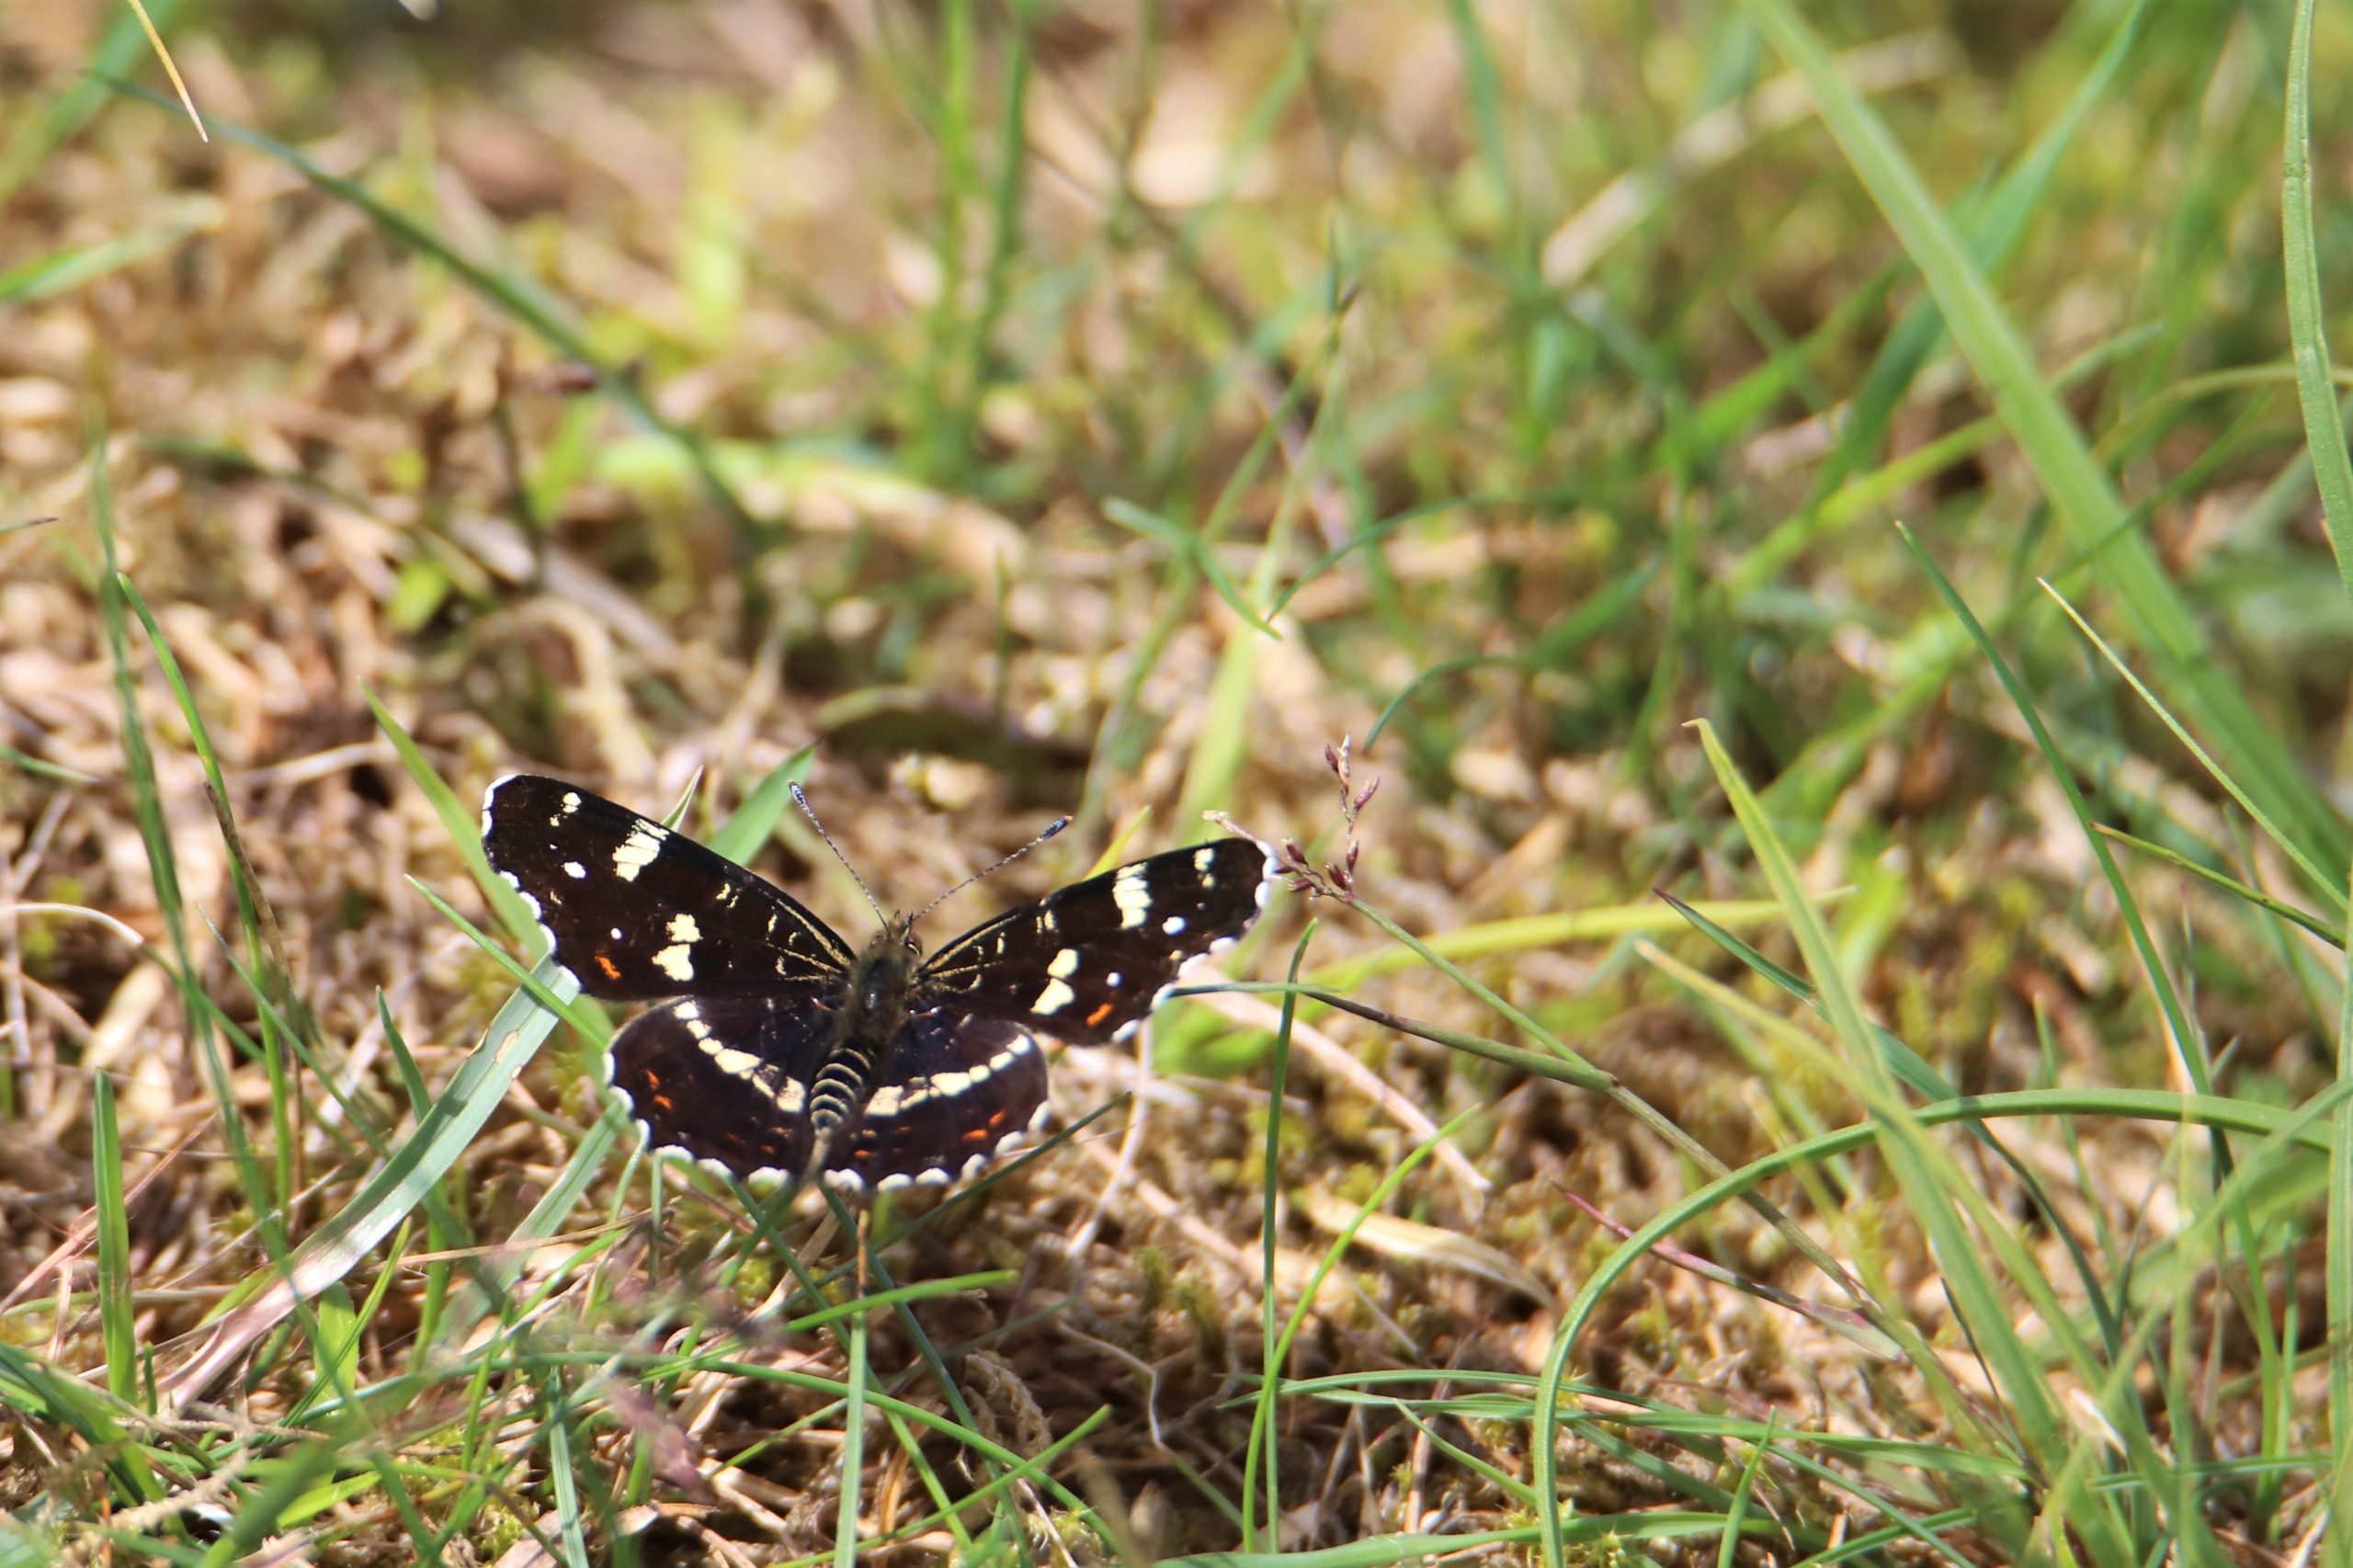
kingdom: Animalia
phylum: Arthropoda
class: Insecta
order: Lepidoptera
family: Nymphalidae
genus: Araschnia
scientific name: Araschnia levana
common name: Nældesommerfugl
